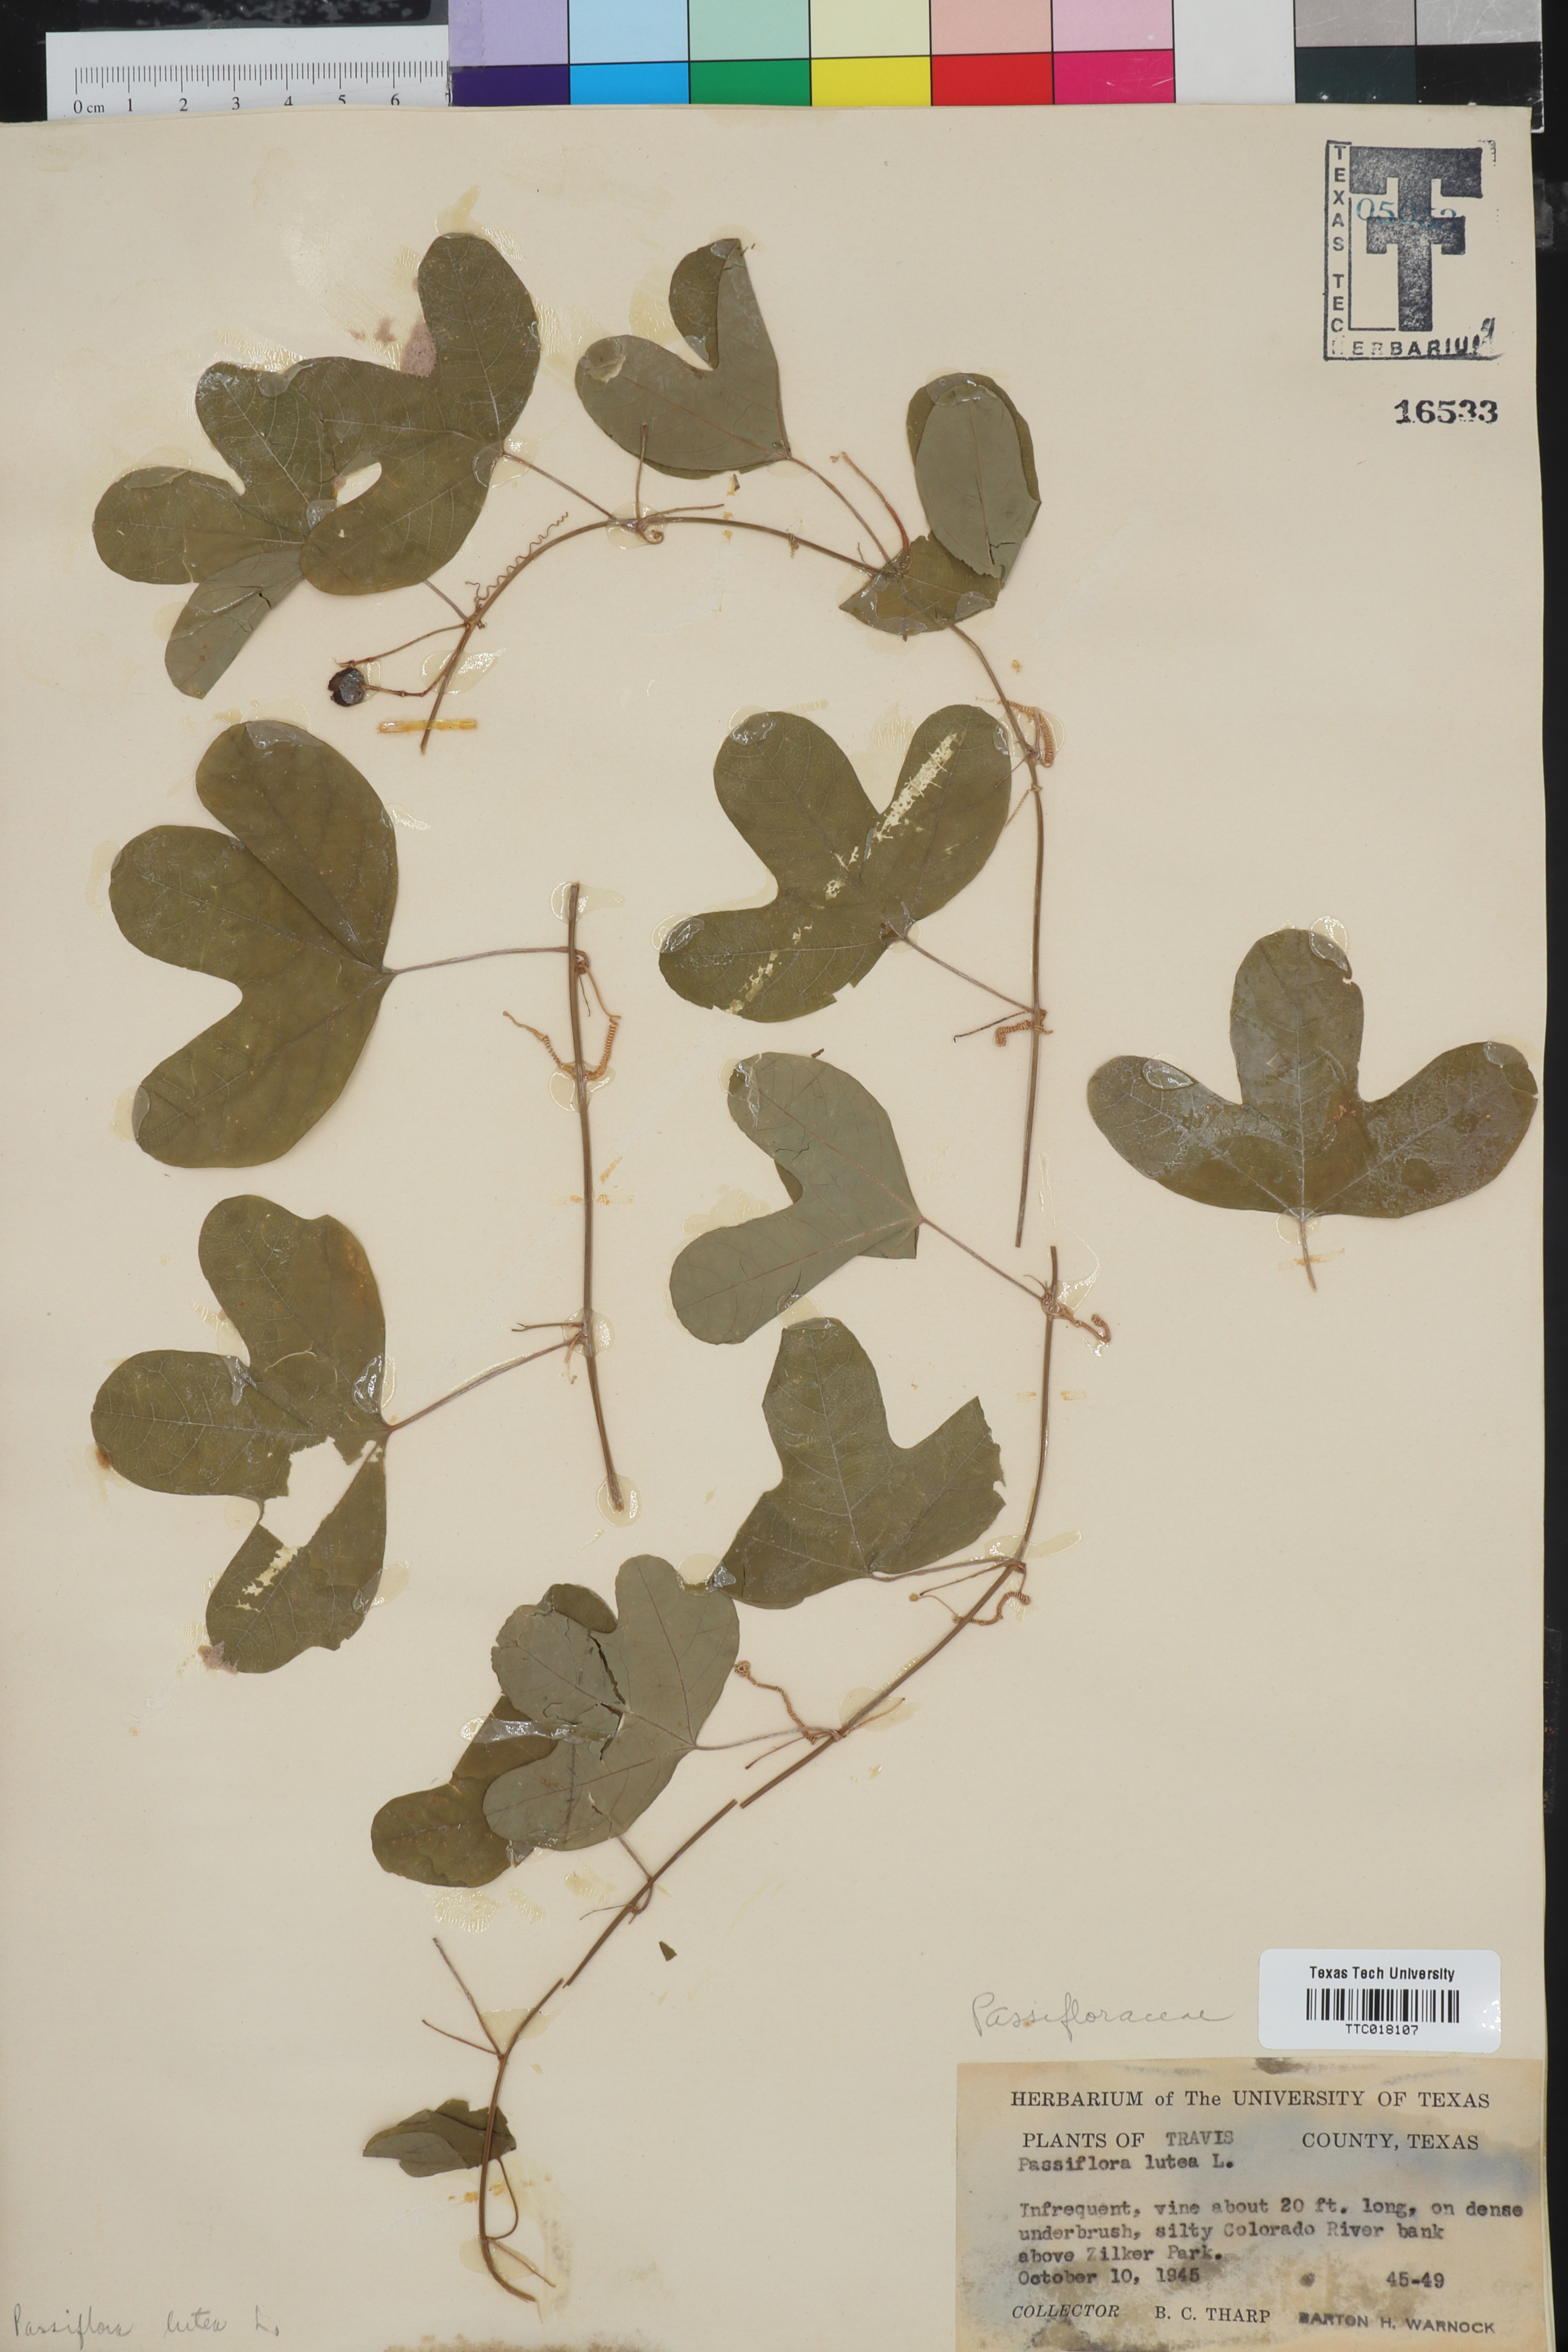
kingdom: Plantae
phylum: Tracheophyta
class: Magnoliopsida
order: Malpighiales
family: Passifloraceae
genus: Passiflora
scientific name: Passiflora lutea
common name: Yellow passionflower
